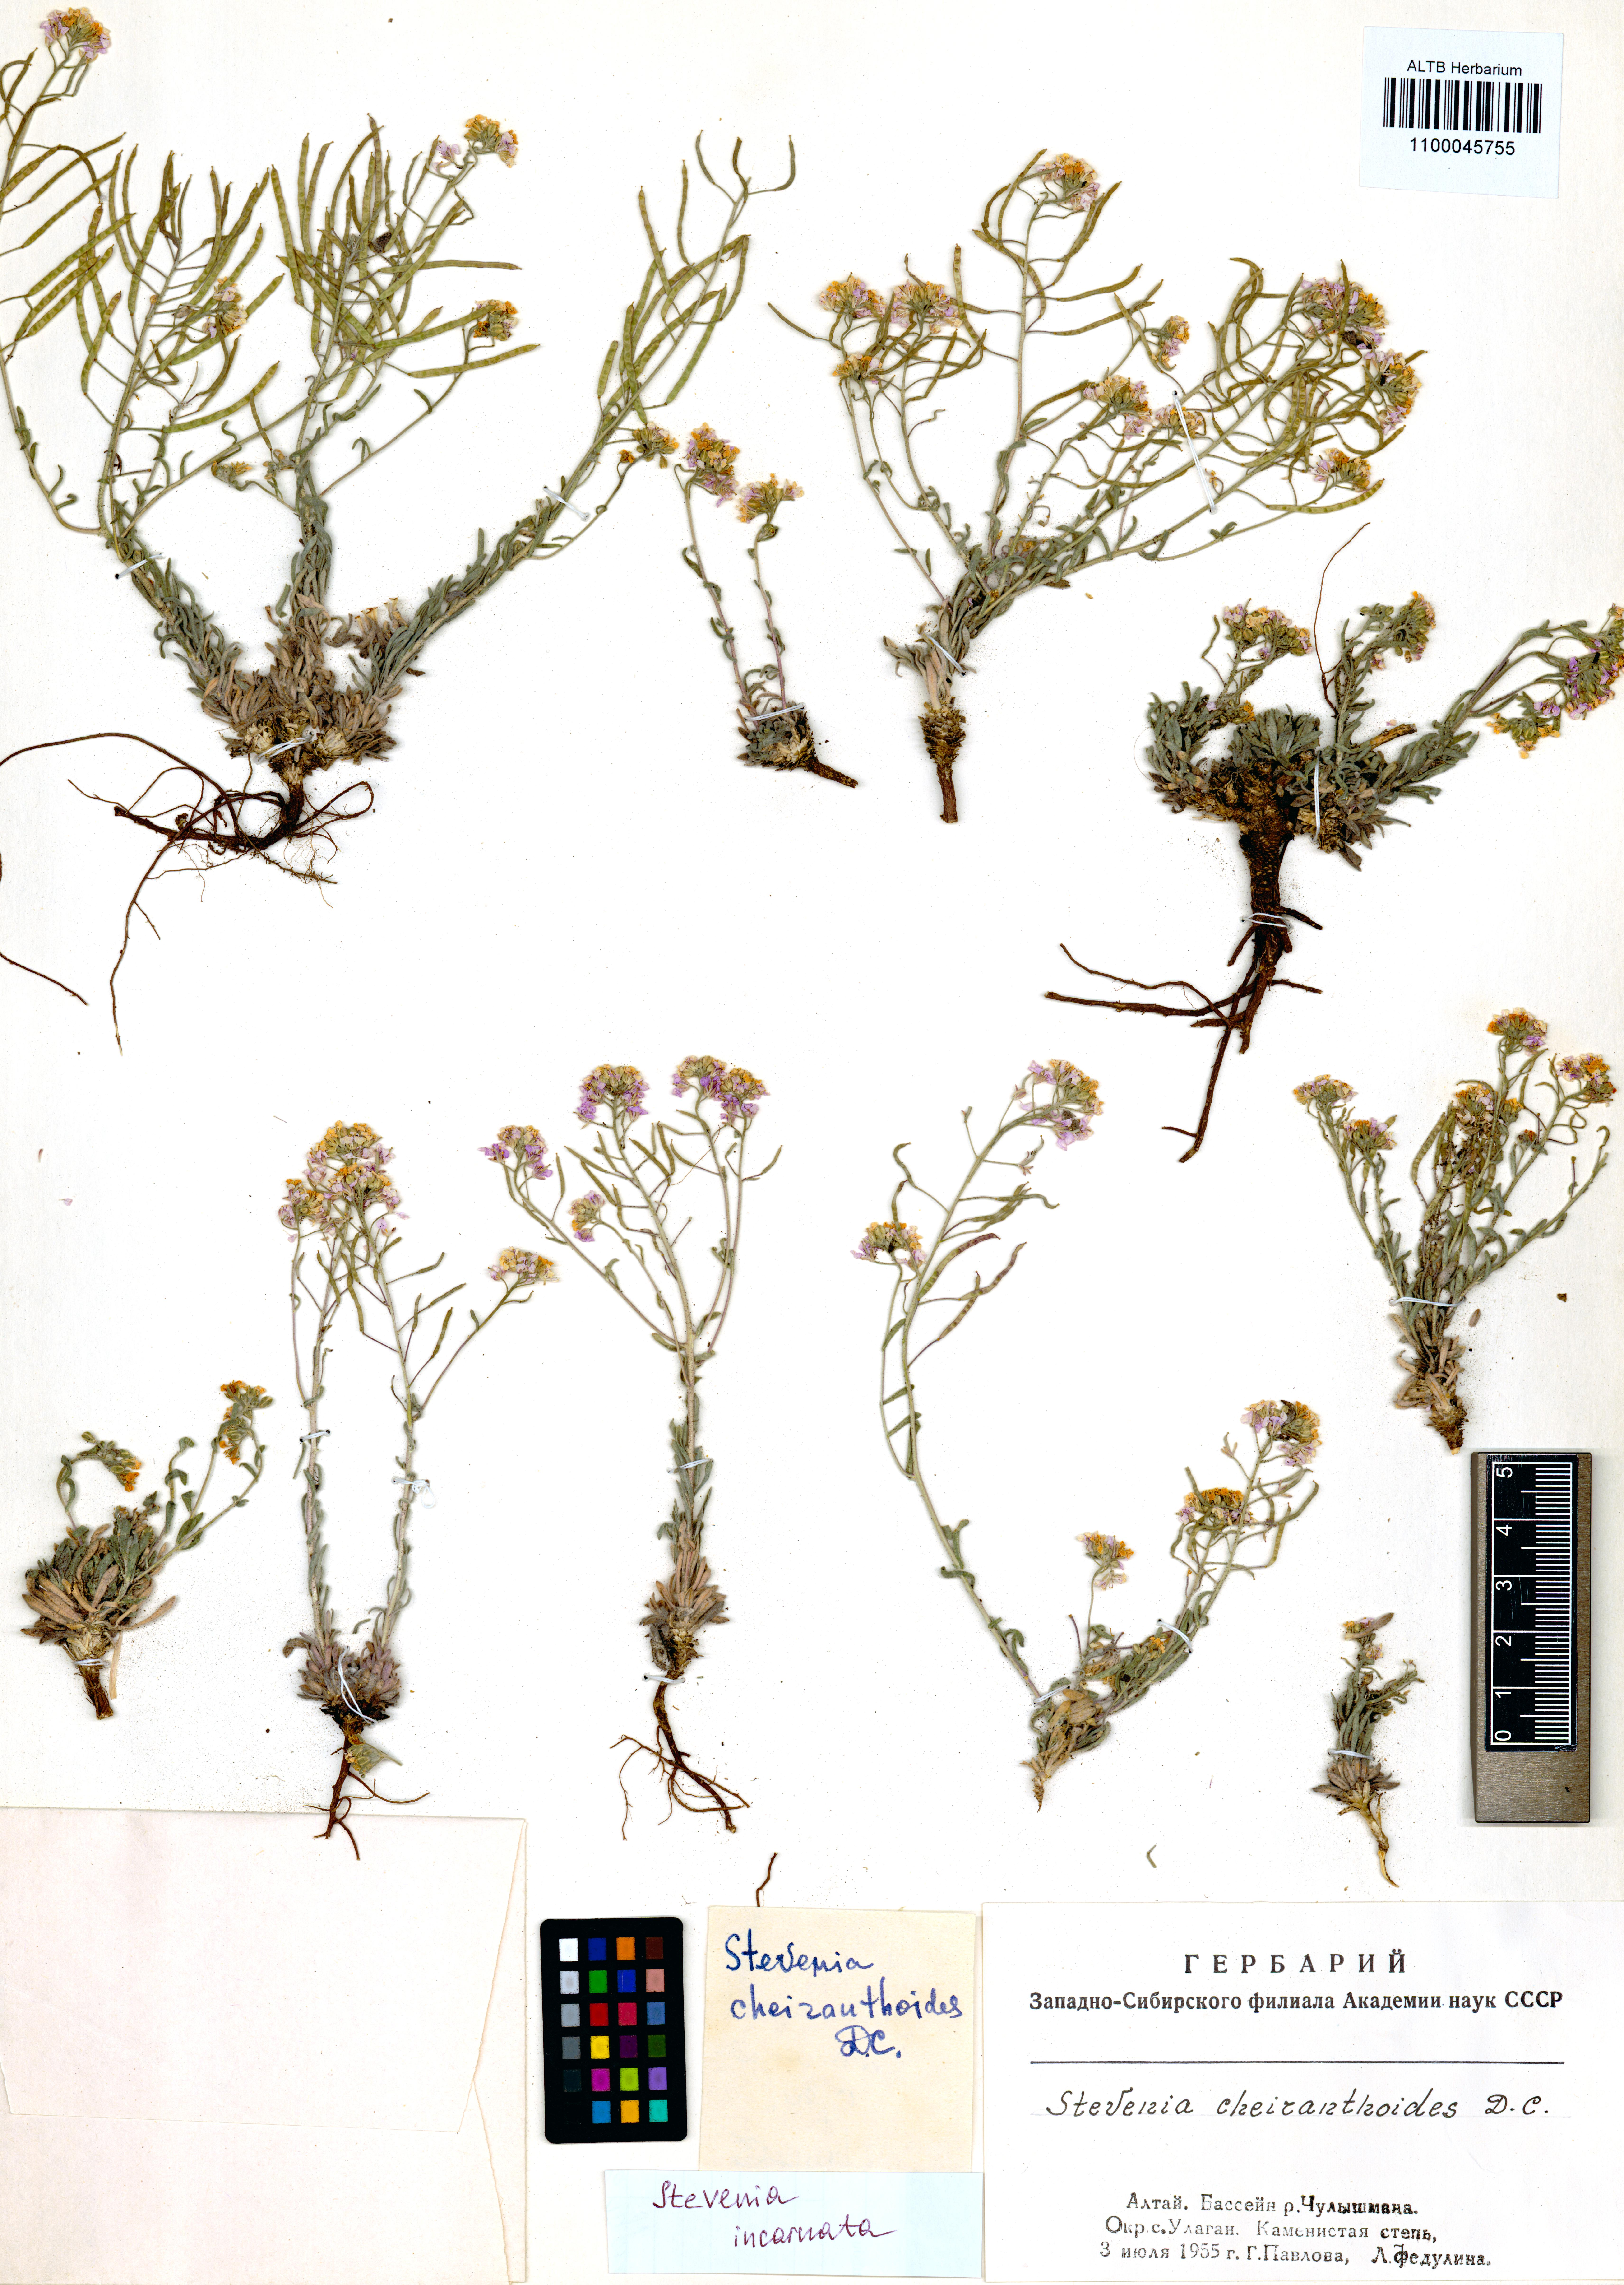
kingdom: Plantae
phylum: Tracheophyta
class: Magnoliopsida
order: Brassicales
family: Brassicaceae
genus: Stevenia
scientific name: Stevenia incarnata
